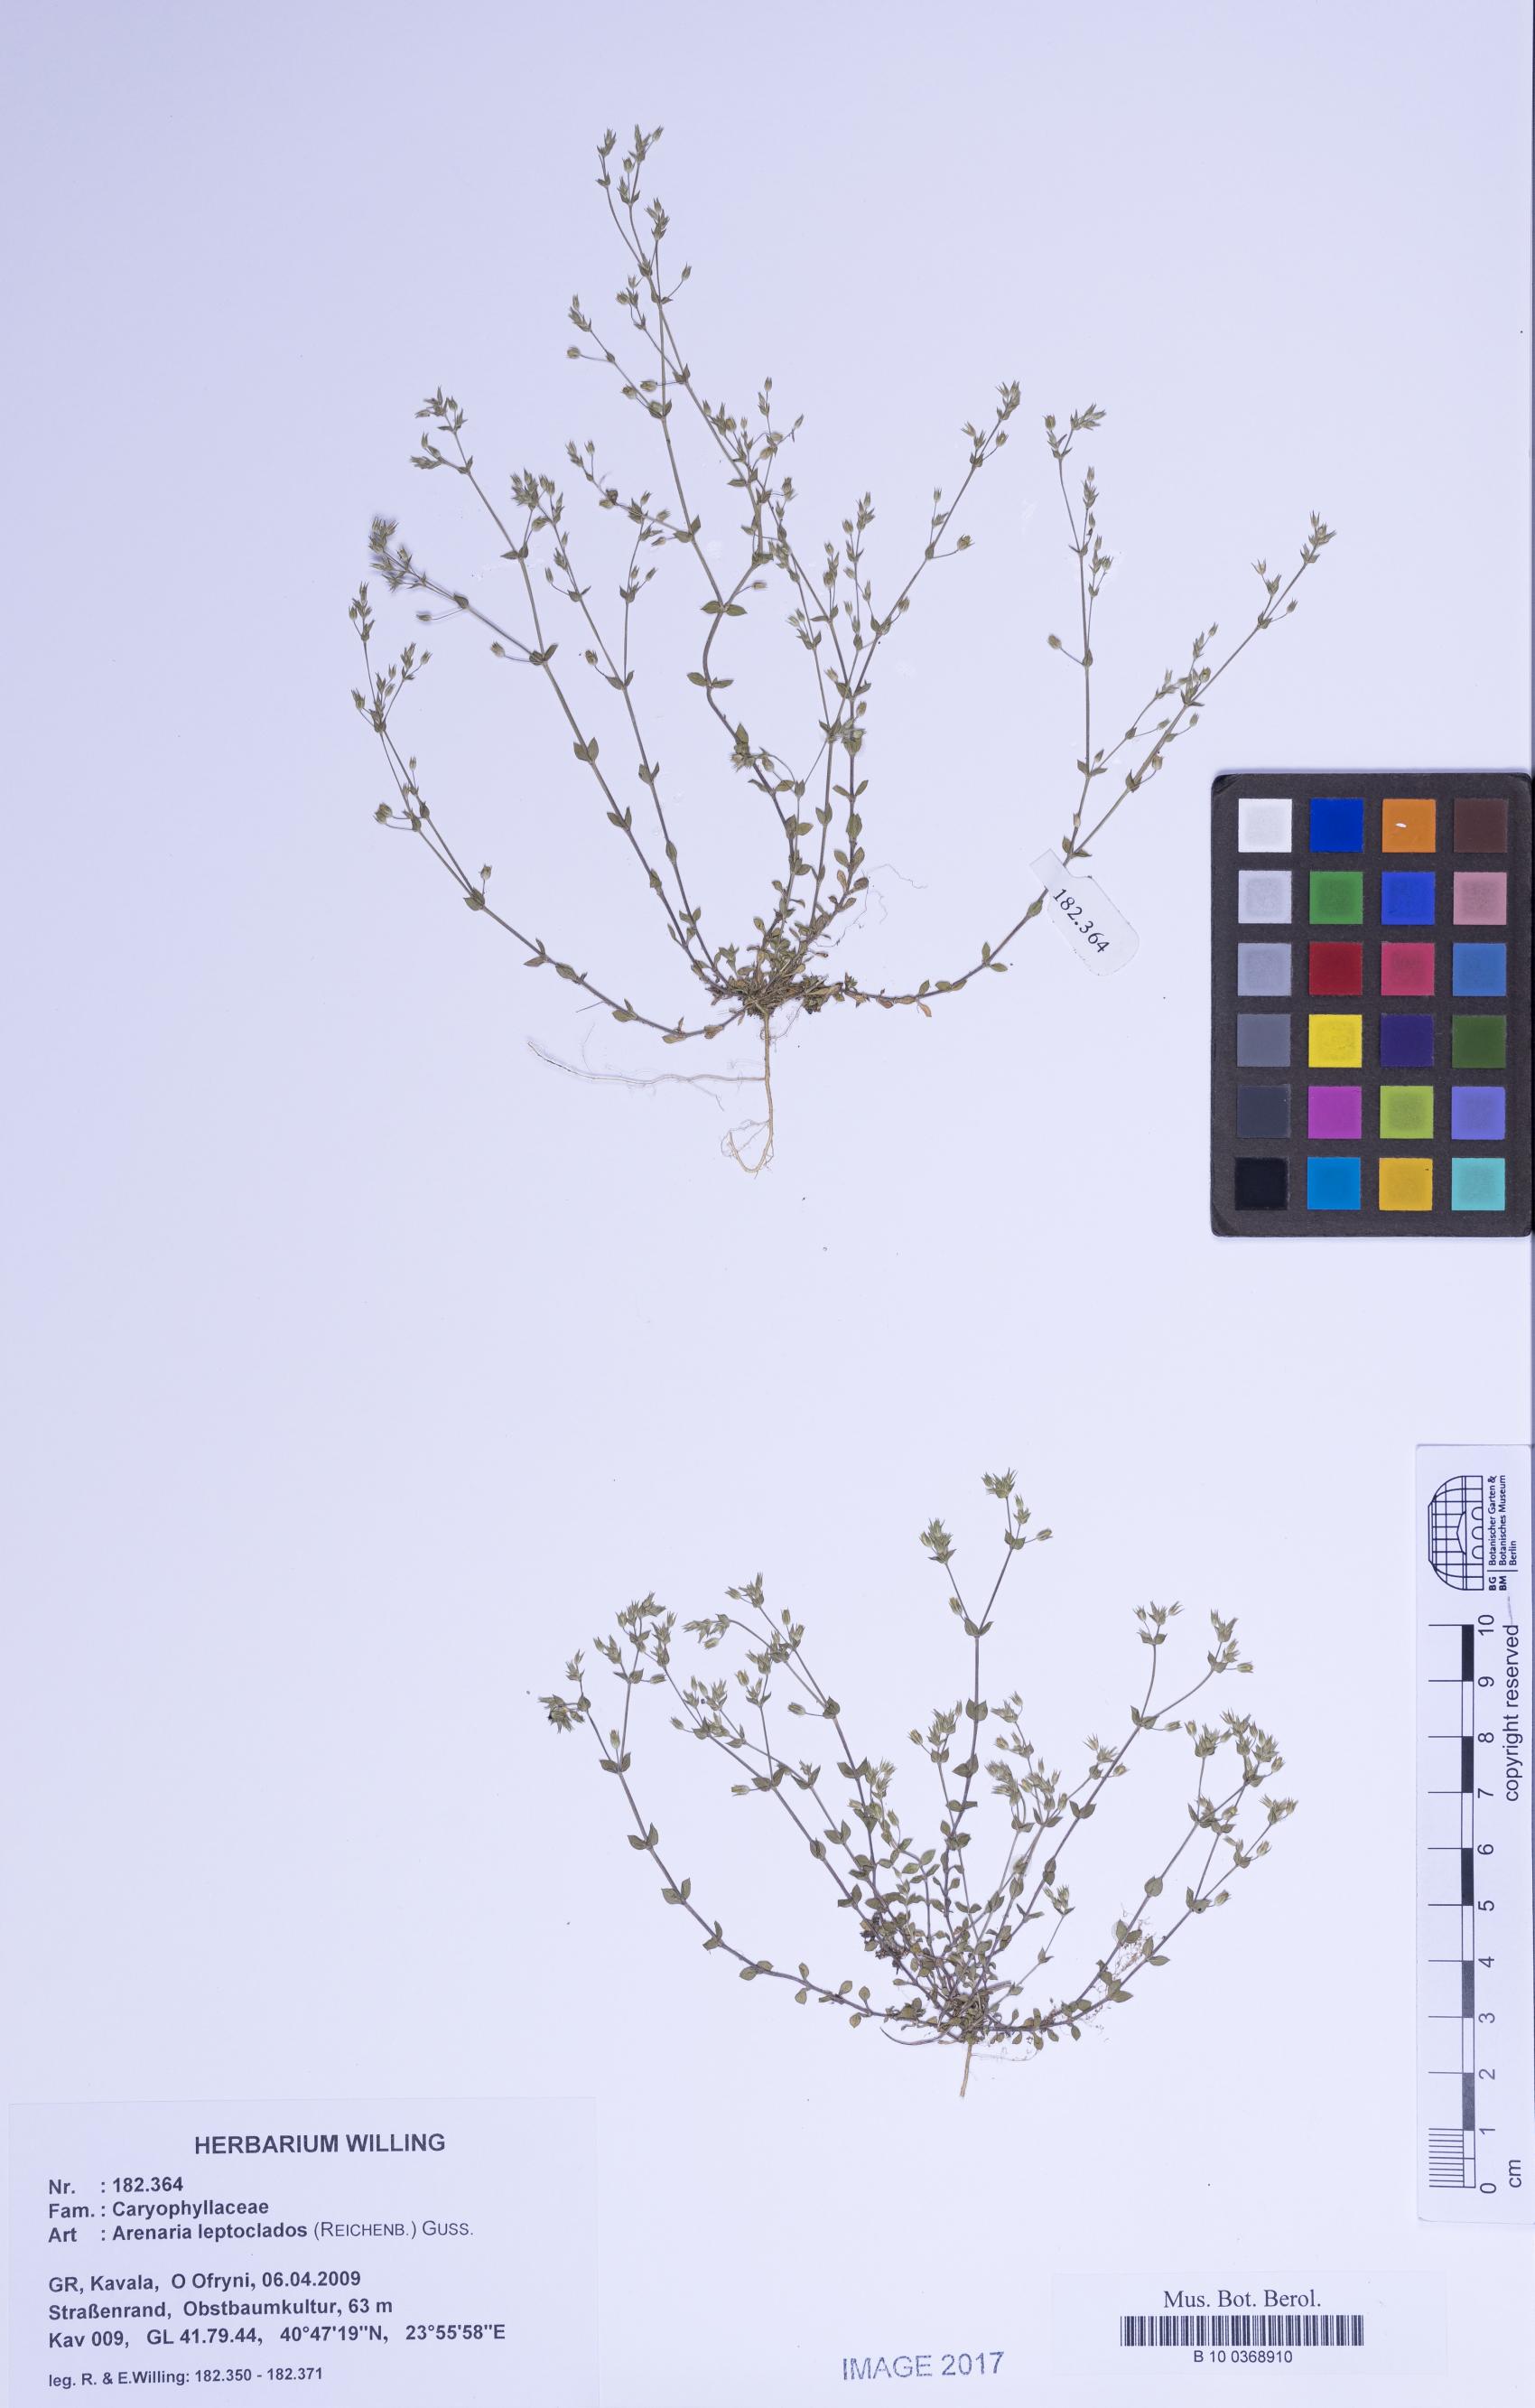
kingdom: Plantae
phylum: Tracheophyta
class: Magnoliopsida
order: Caryophyllales
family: Caryophyllaceae
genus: Arenaria
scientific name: Arenaria leptoclados
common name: Thyme-leaved sandwort
